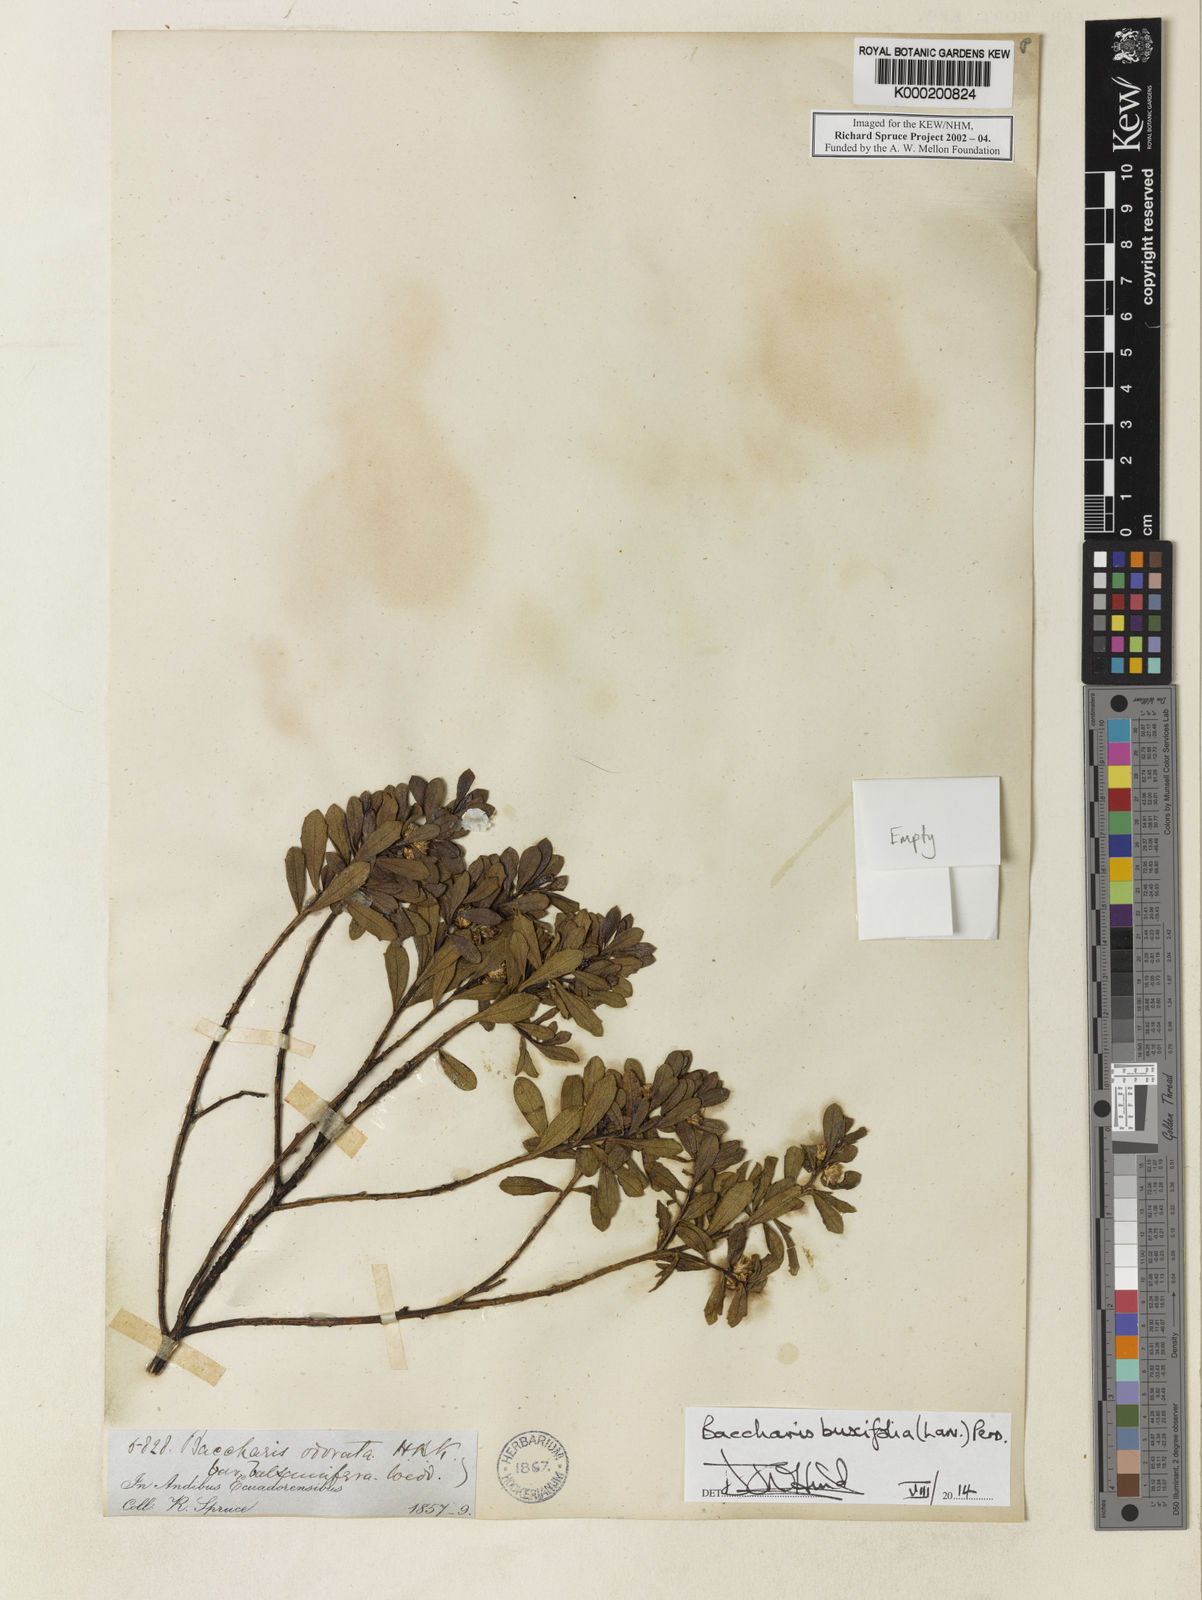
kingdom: Plantae
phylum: Tracheophyta
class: Magnoliopsida
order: Asterales
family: Asteraceae
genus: Baccharis
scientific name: Baccharis buxifolia
